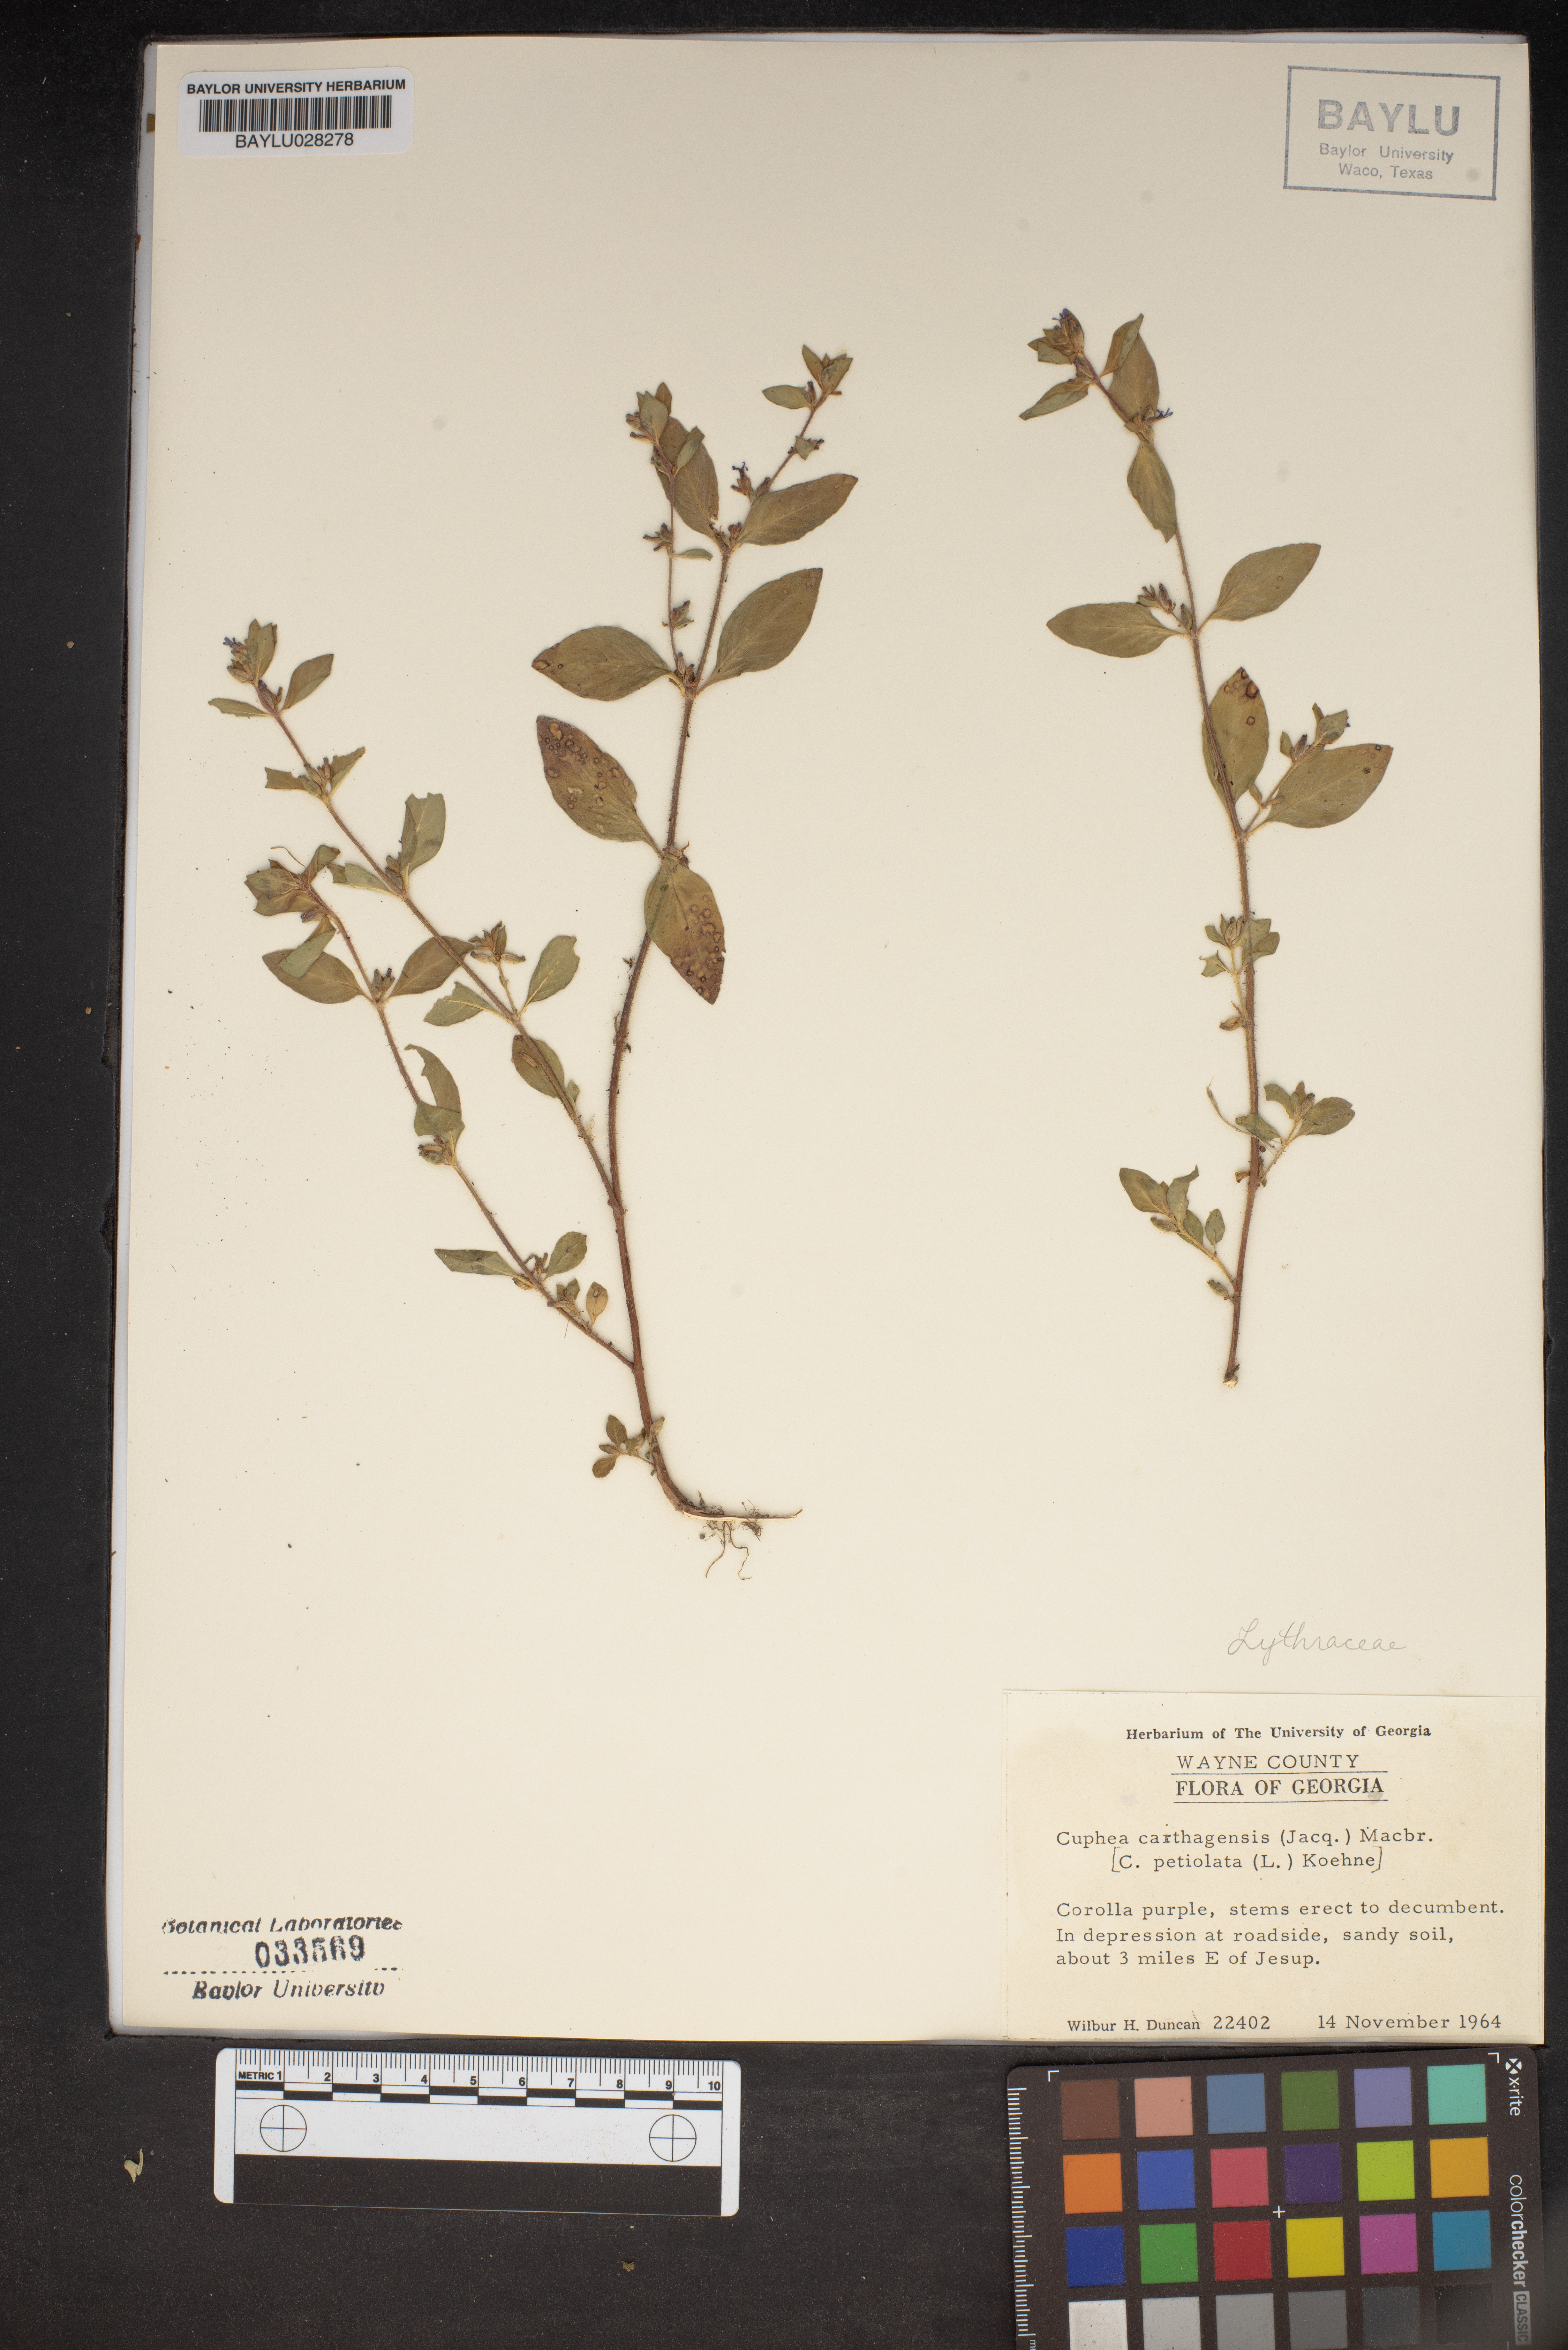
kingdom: Plantae
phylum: Tracheophyta
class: Magnoliopsida
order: Myrtales
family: Lythraceae
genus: Cuphea
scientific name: Cuphea carthagenensis
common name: Colombian waxweed
